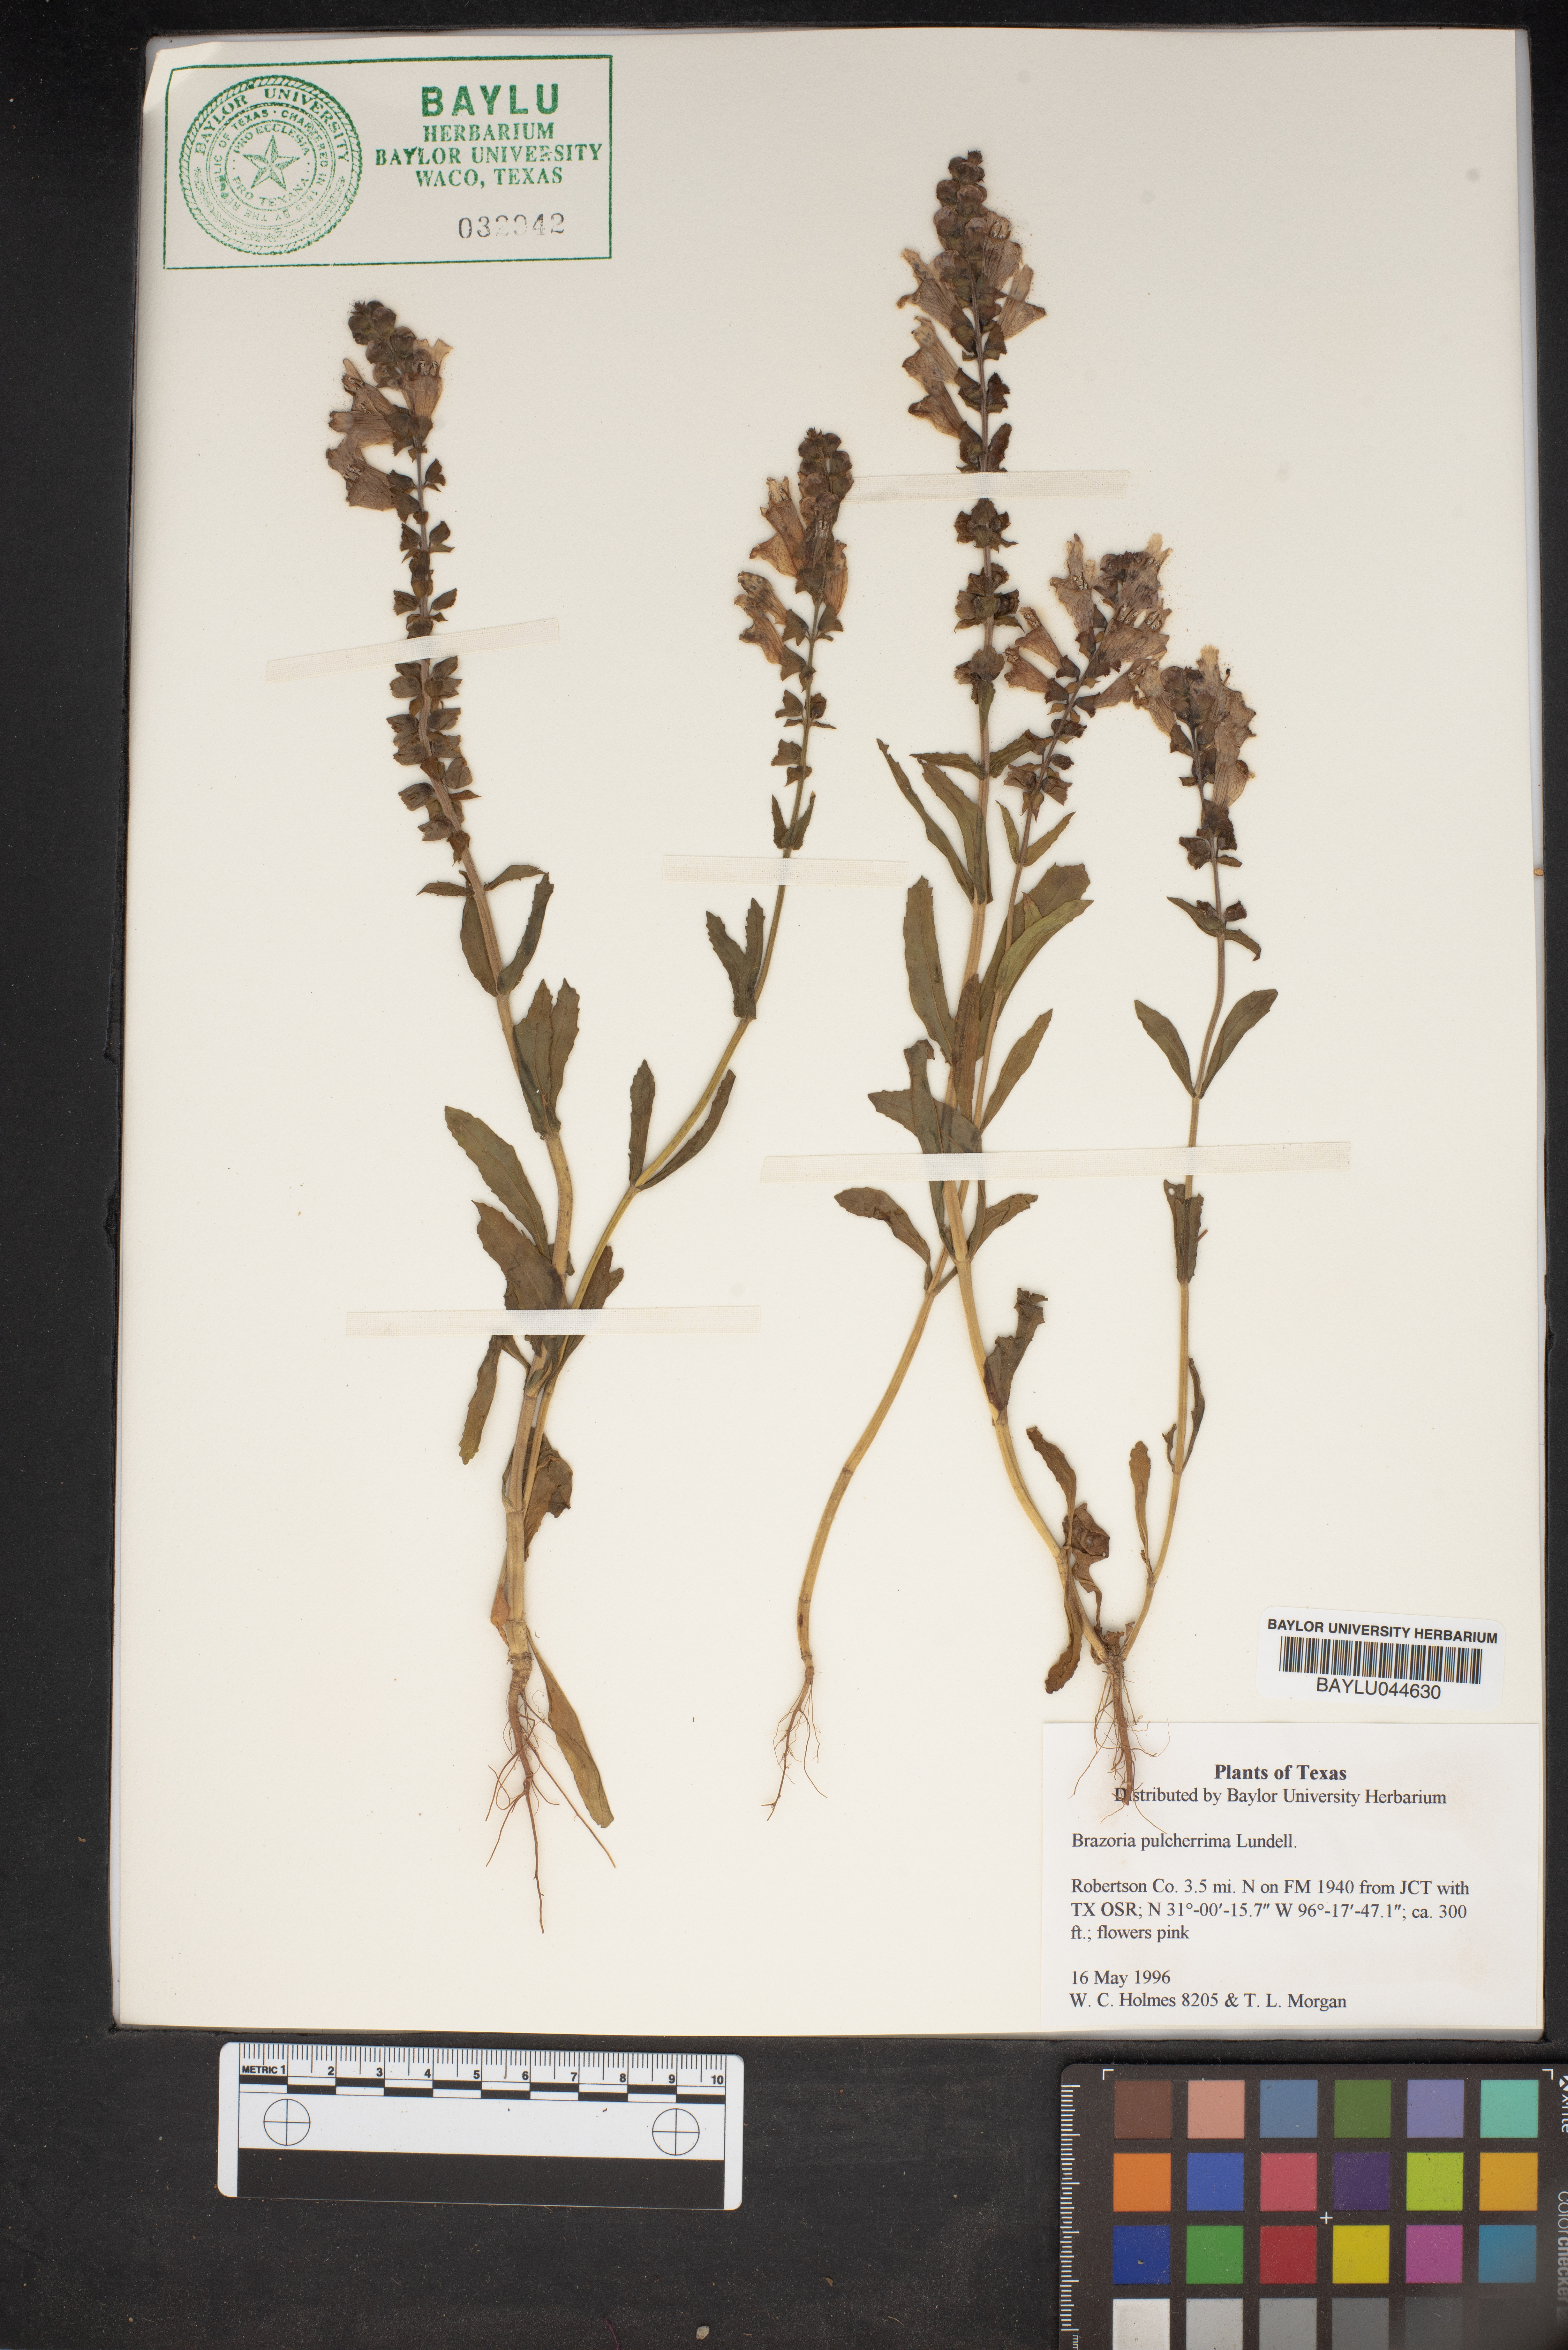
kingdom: Plantae
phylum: Tracheophyta
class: Magnoliopsida
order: Lamiales
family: Lamiaceae
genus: Brazoria
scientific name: Brazoria truncata
